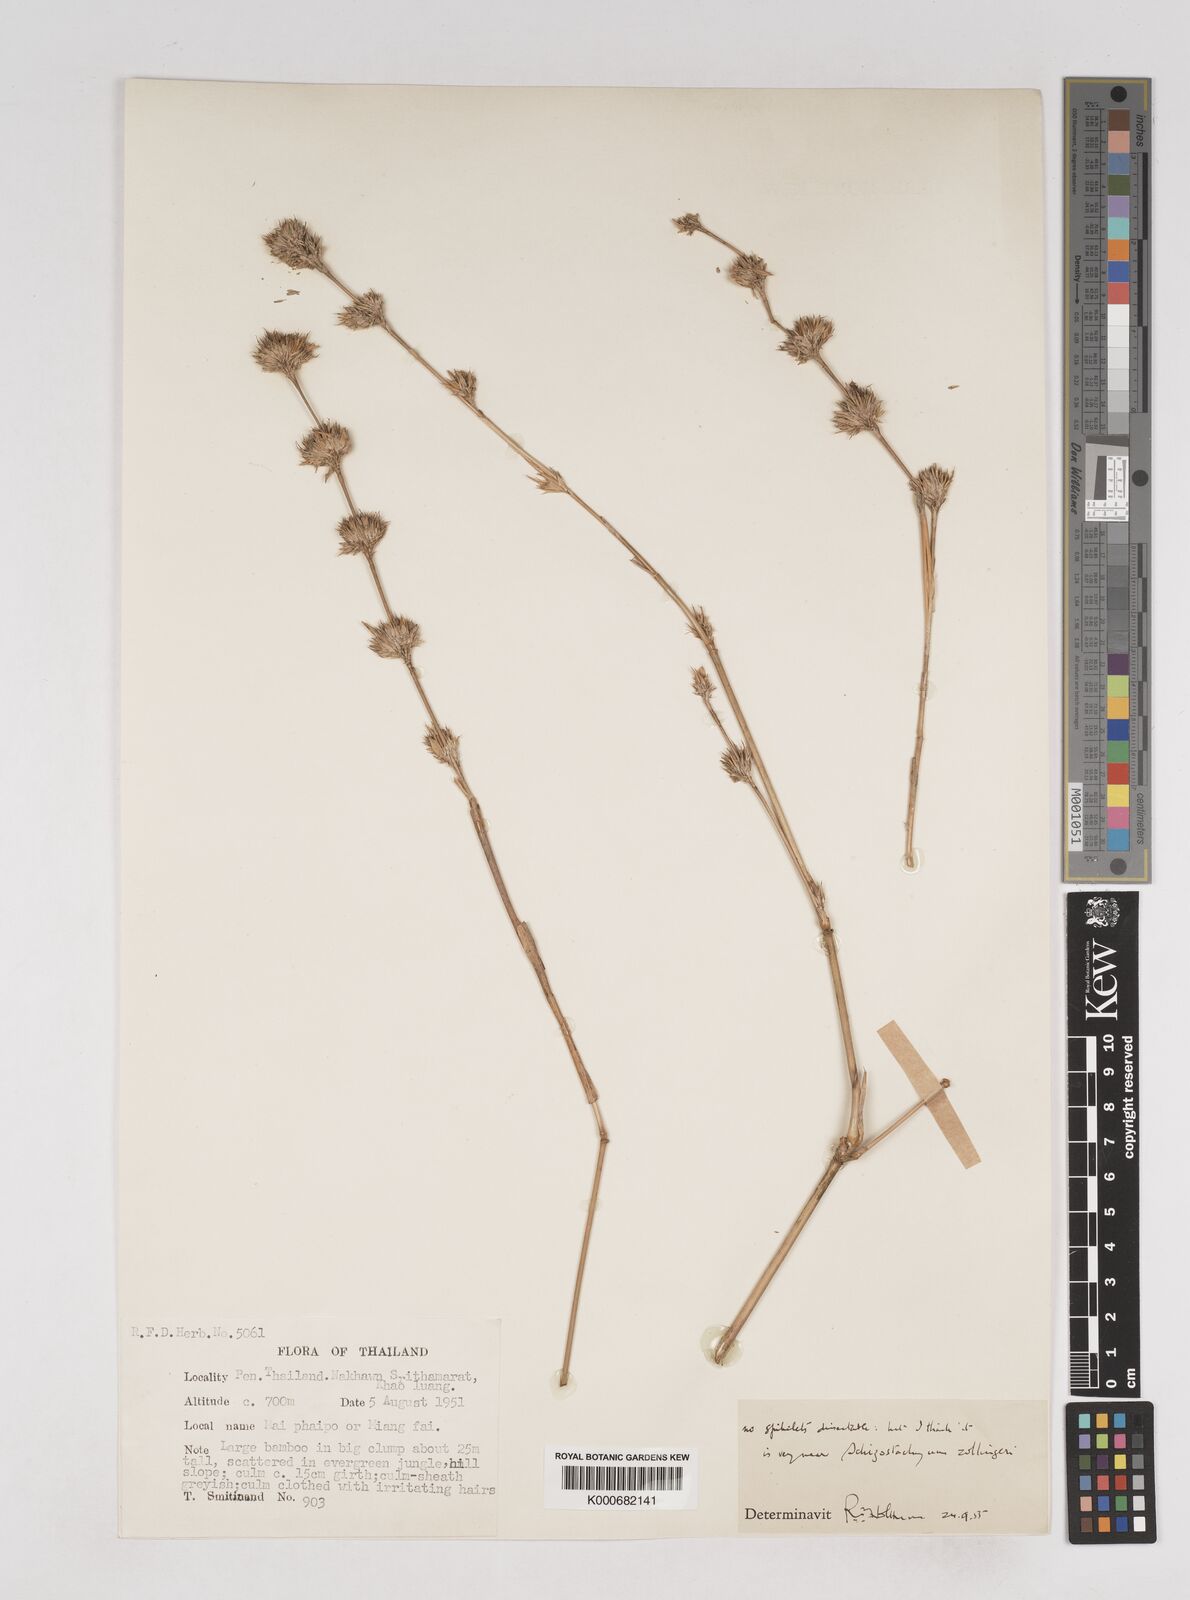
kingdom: Plantae
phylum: Tracheophyta
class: Liliopsida
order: Poales
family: Poaceae
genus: Schizostachyum
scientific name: Schizostachyum
